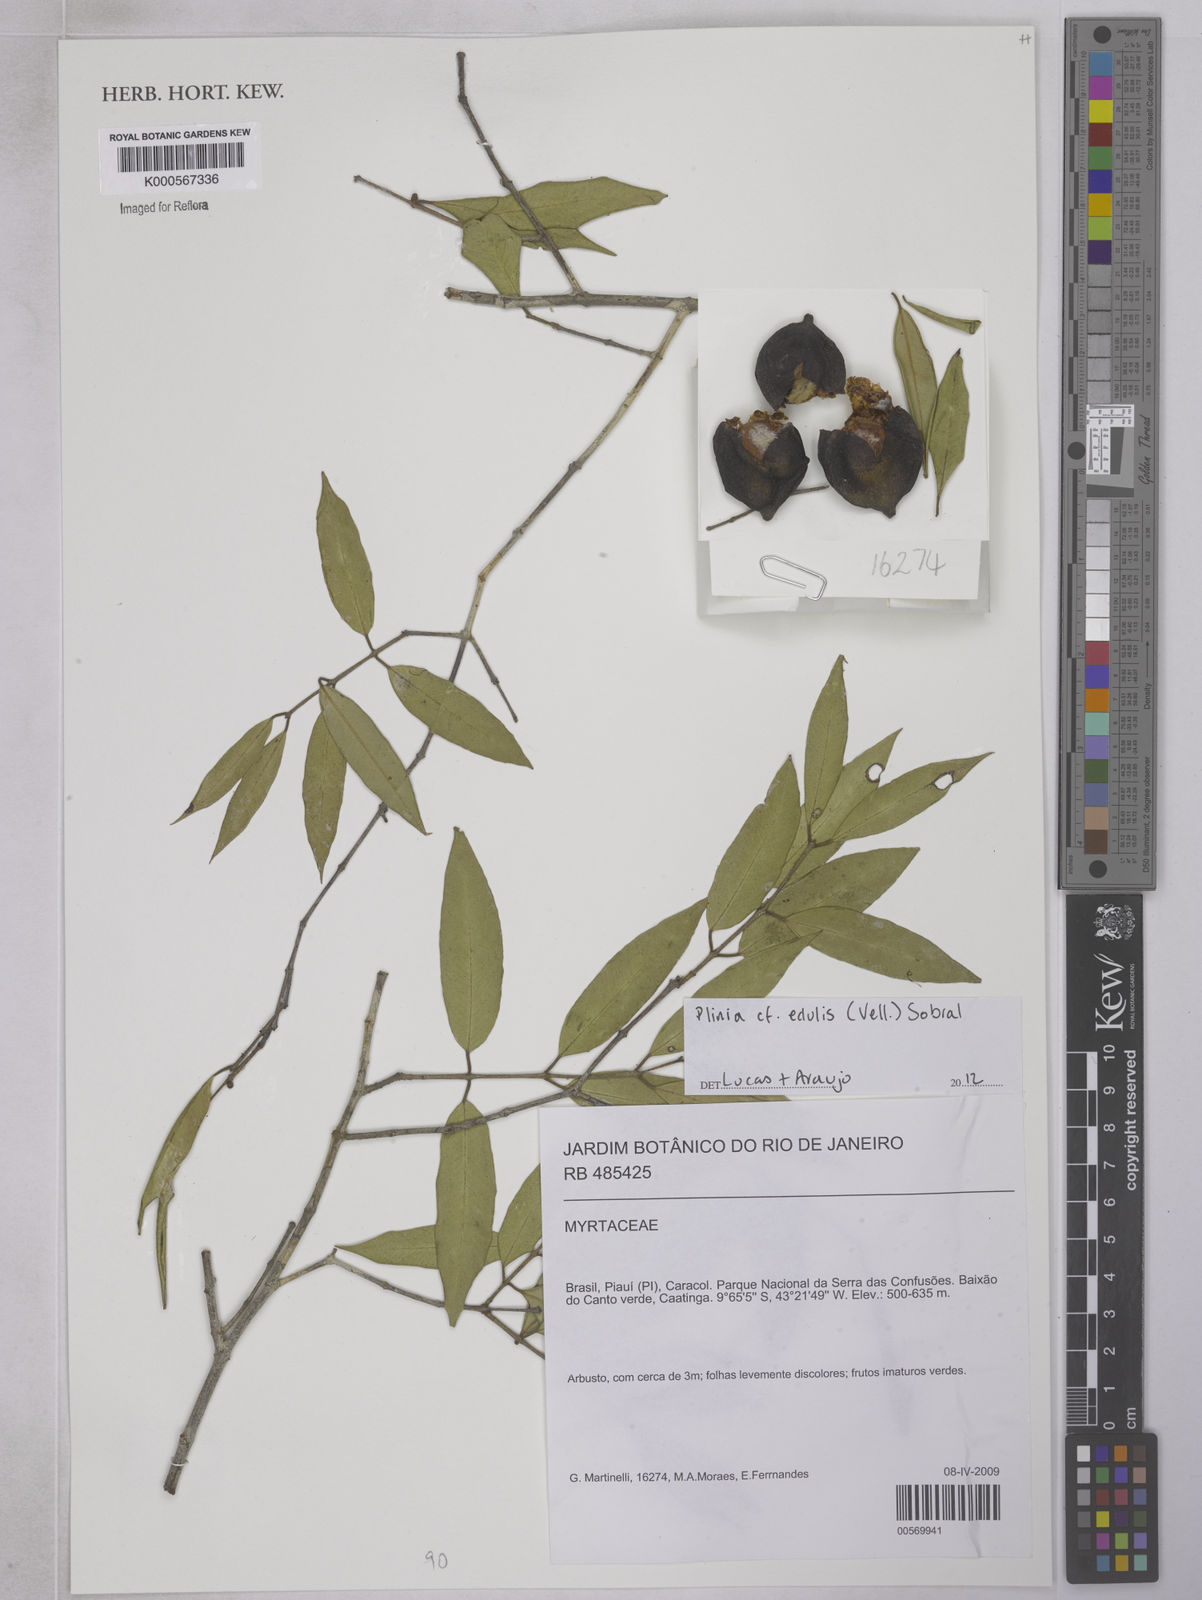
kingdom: Plantae
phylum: Tracheophyta
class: Magnoliopsida
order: Myrtales
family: Myrtaceae
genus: Plinia
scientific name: Plinia rivularis
